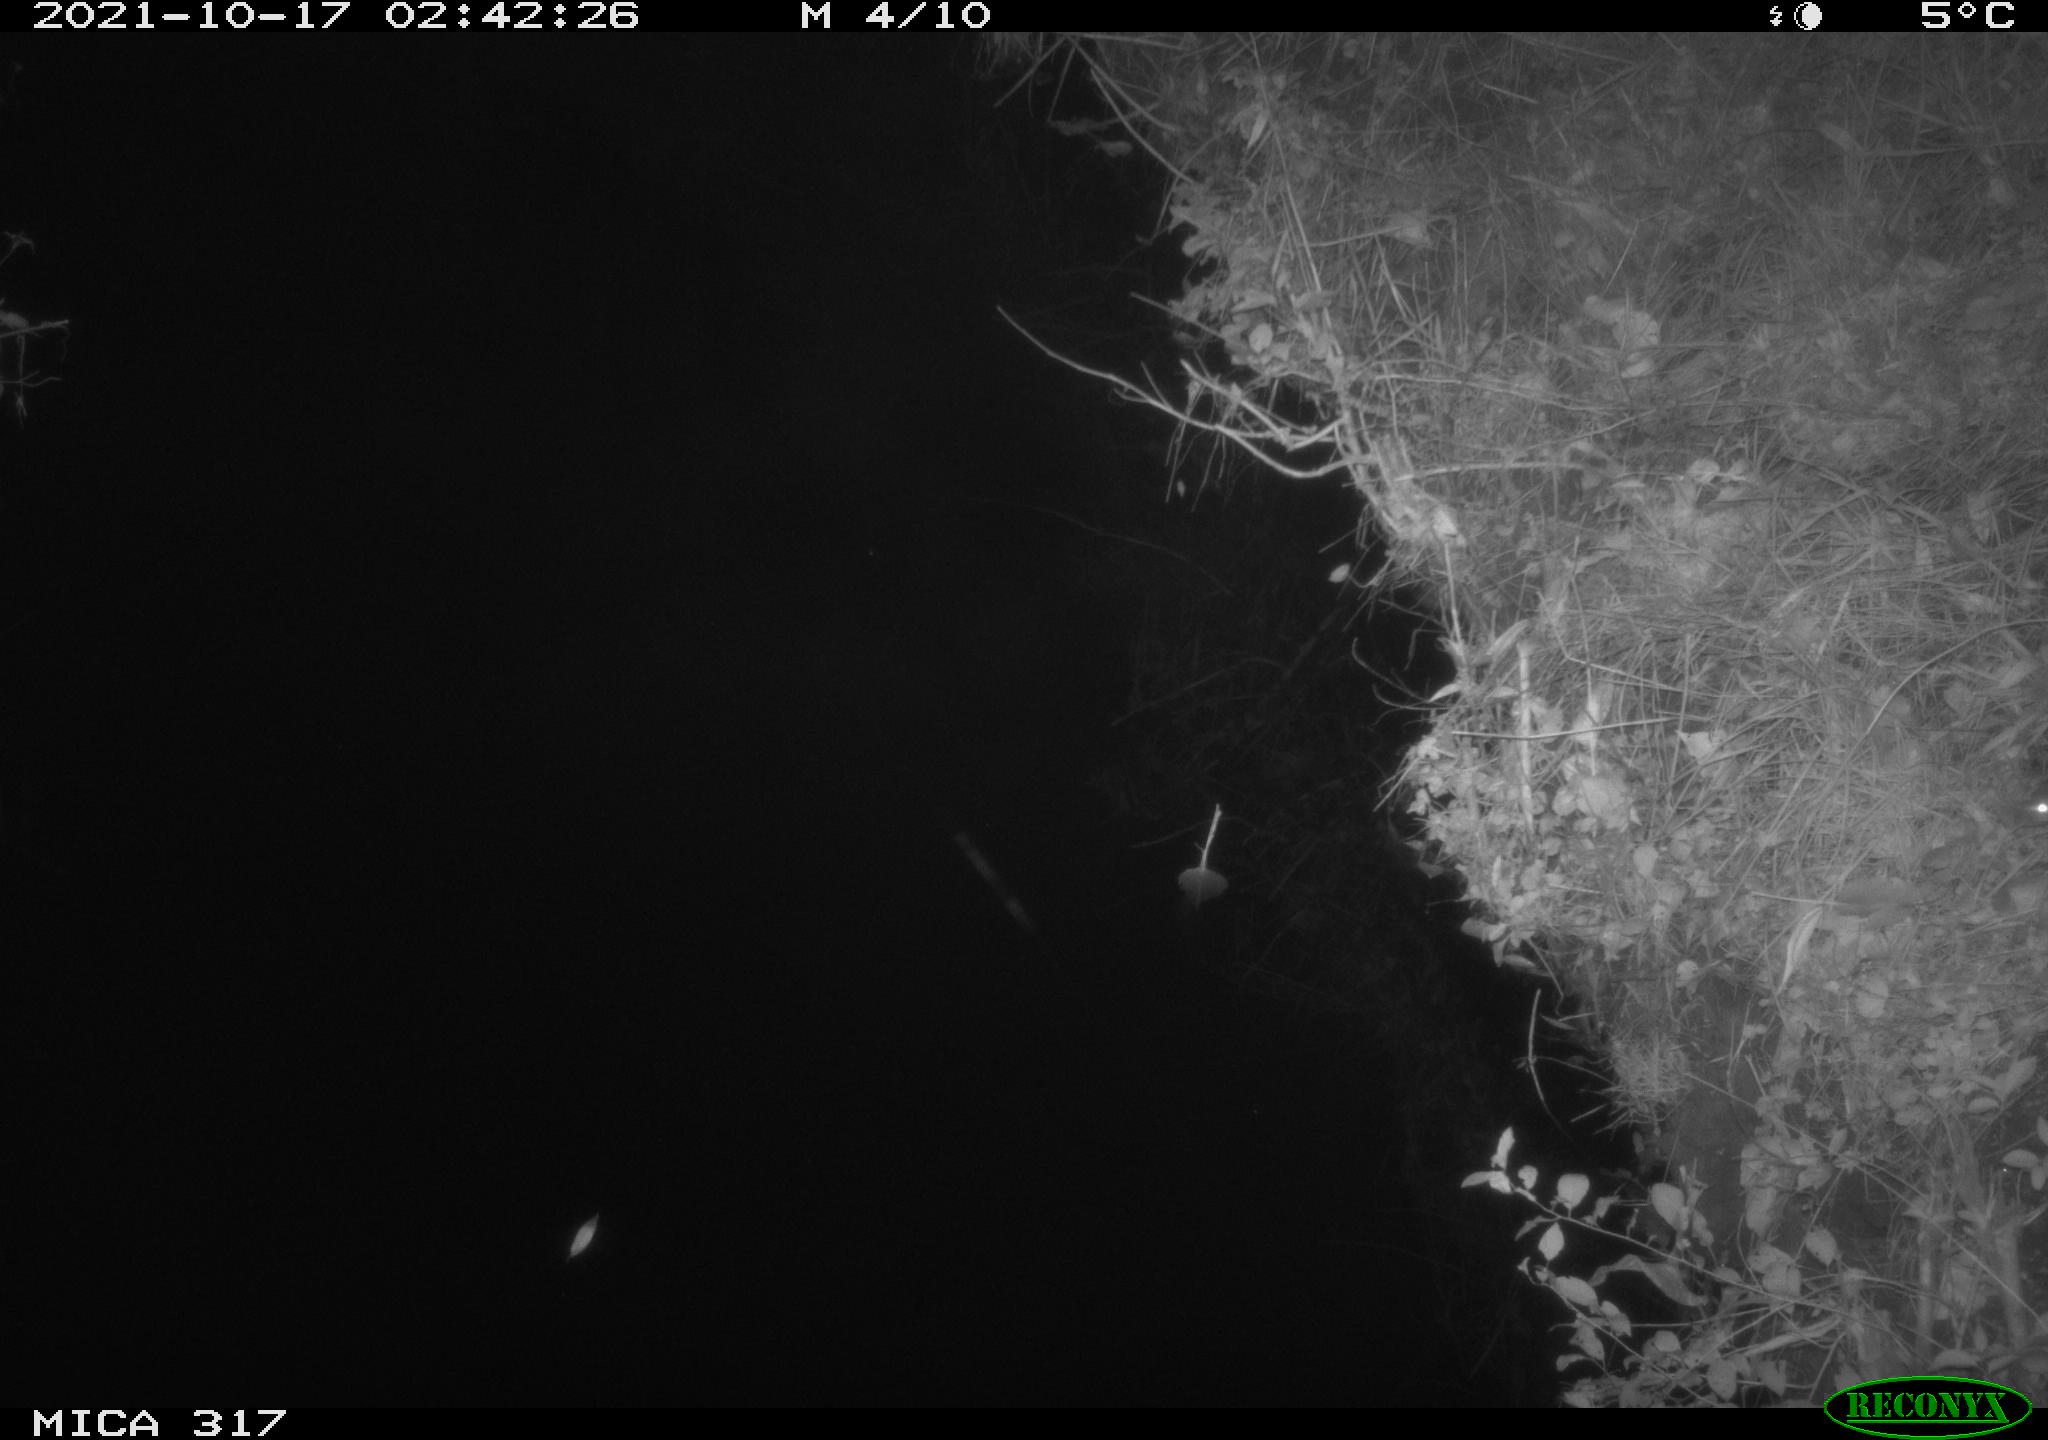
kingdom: Animalia
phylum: Chordata
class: Mammalia
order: Rodentia
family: Muridae
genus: Rattus
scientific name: Rattus norvegicus
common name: Brown rat
